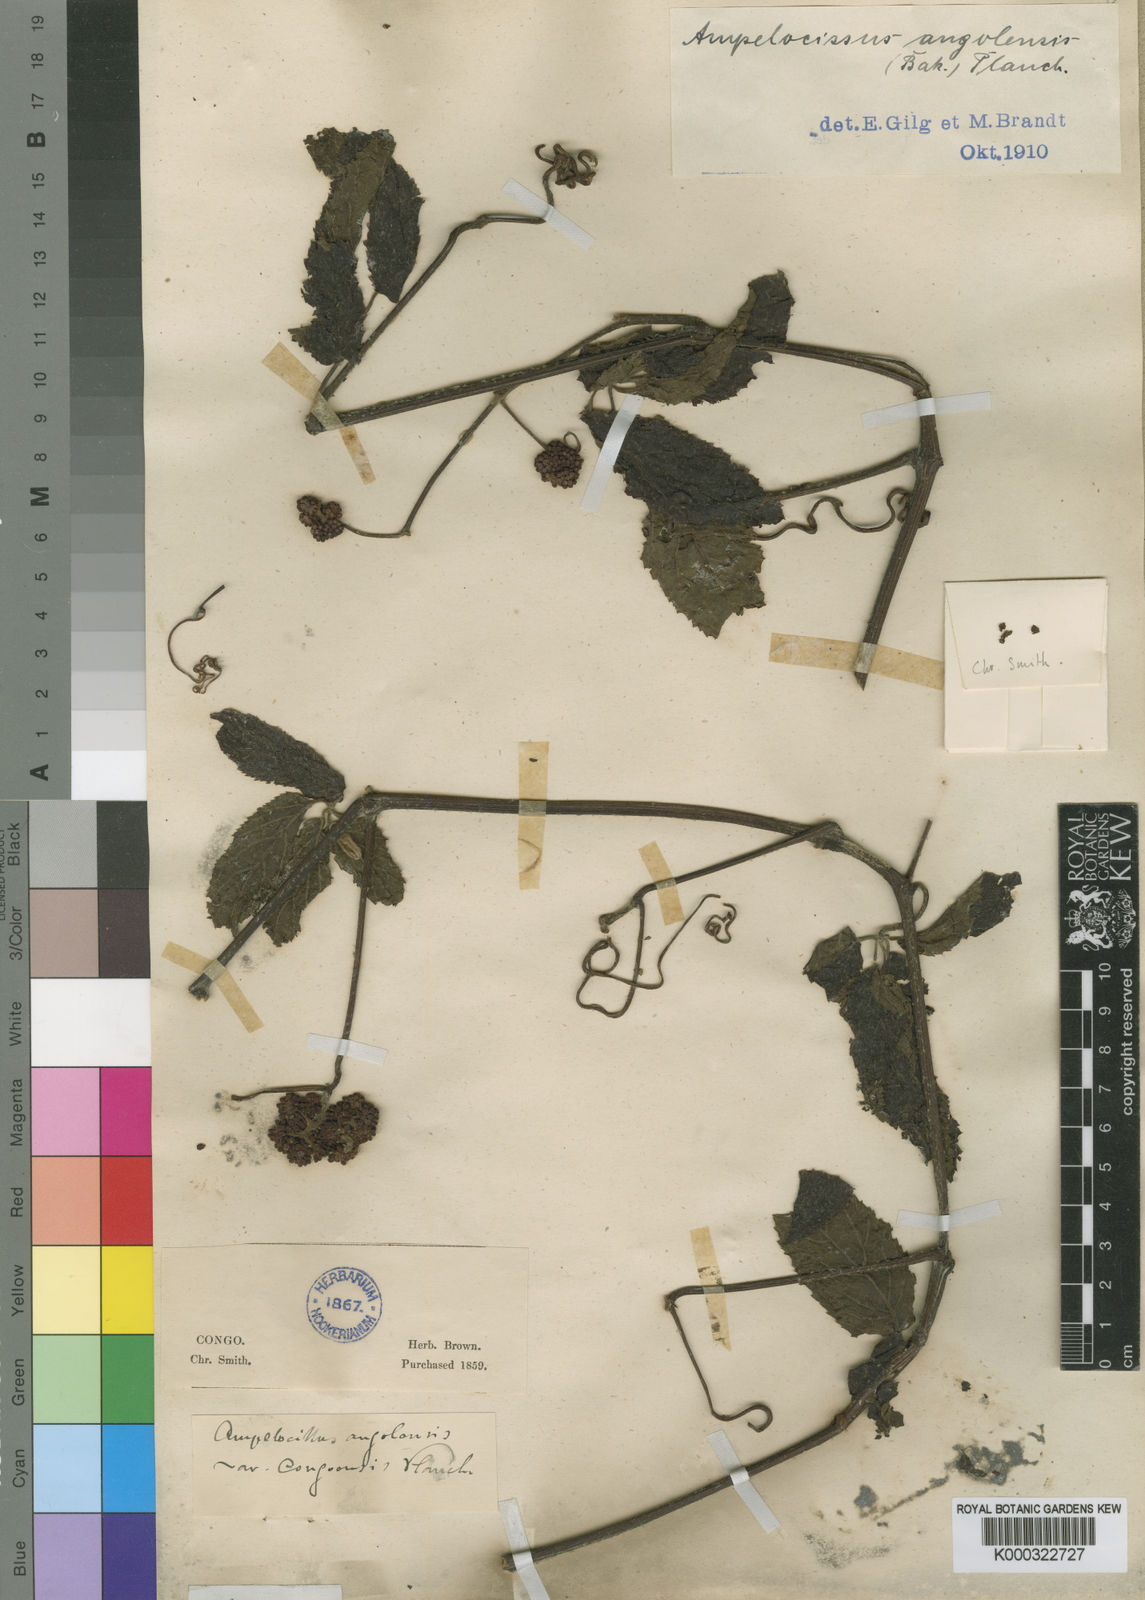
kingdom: Plantae
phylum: Tracheophyta
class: Magnoliopsida
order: Vitales
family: Vitaceae
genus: Ampelocissus
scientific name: Ampelocissus angolensis
